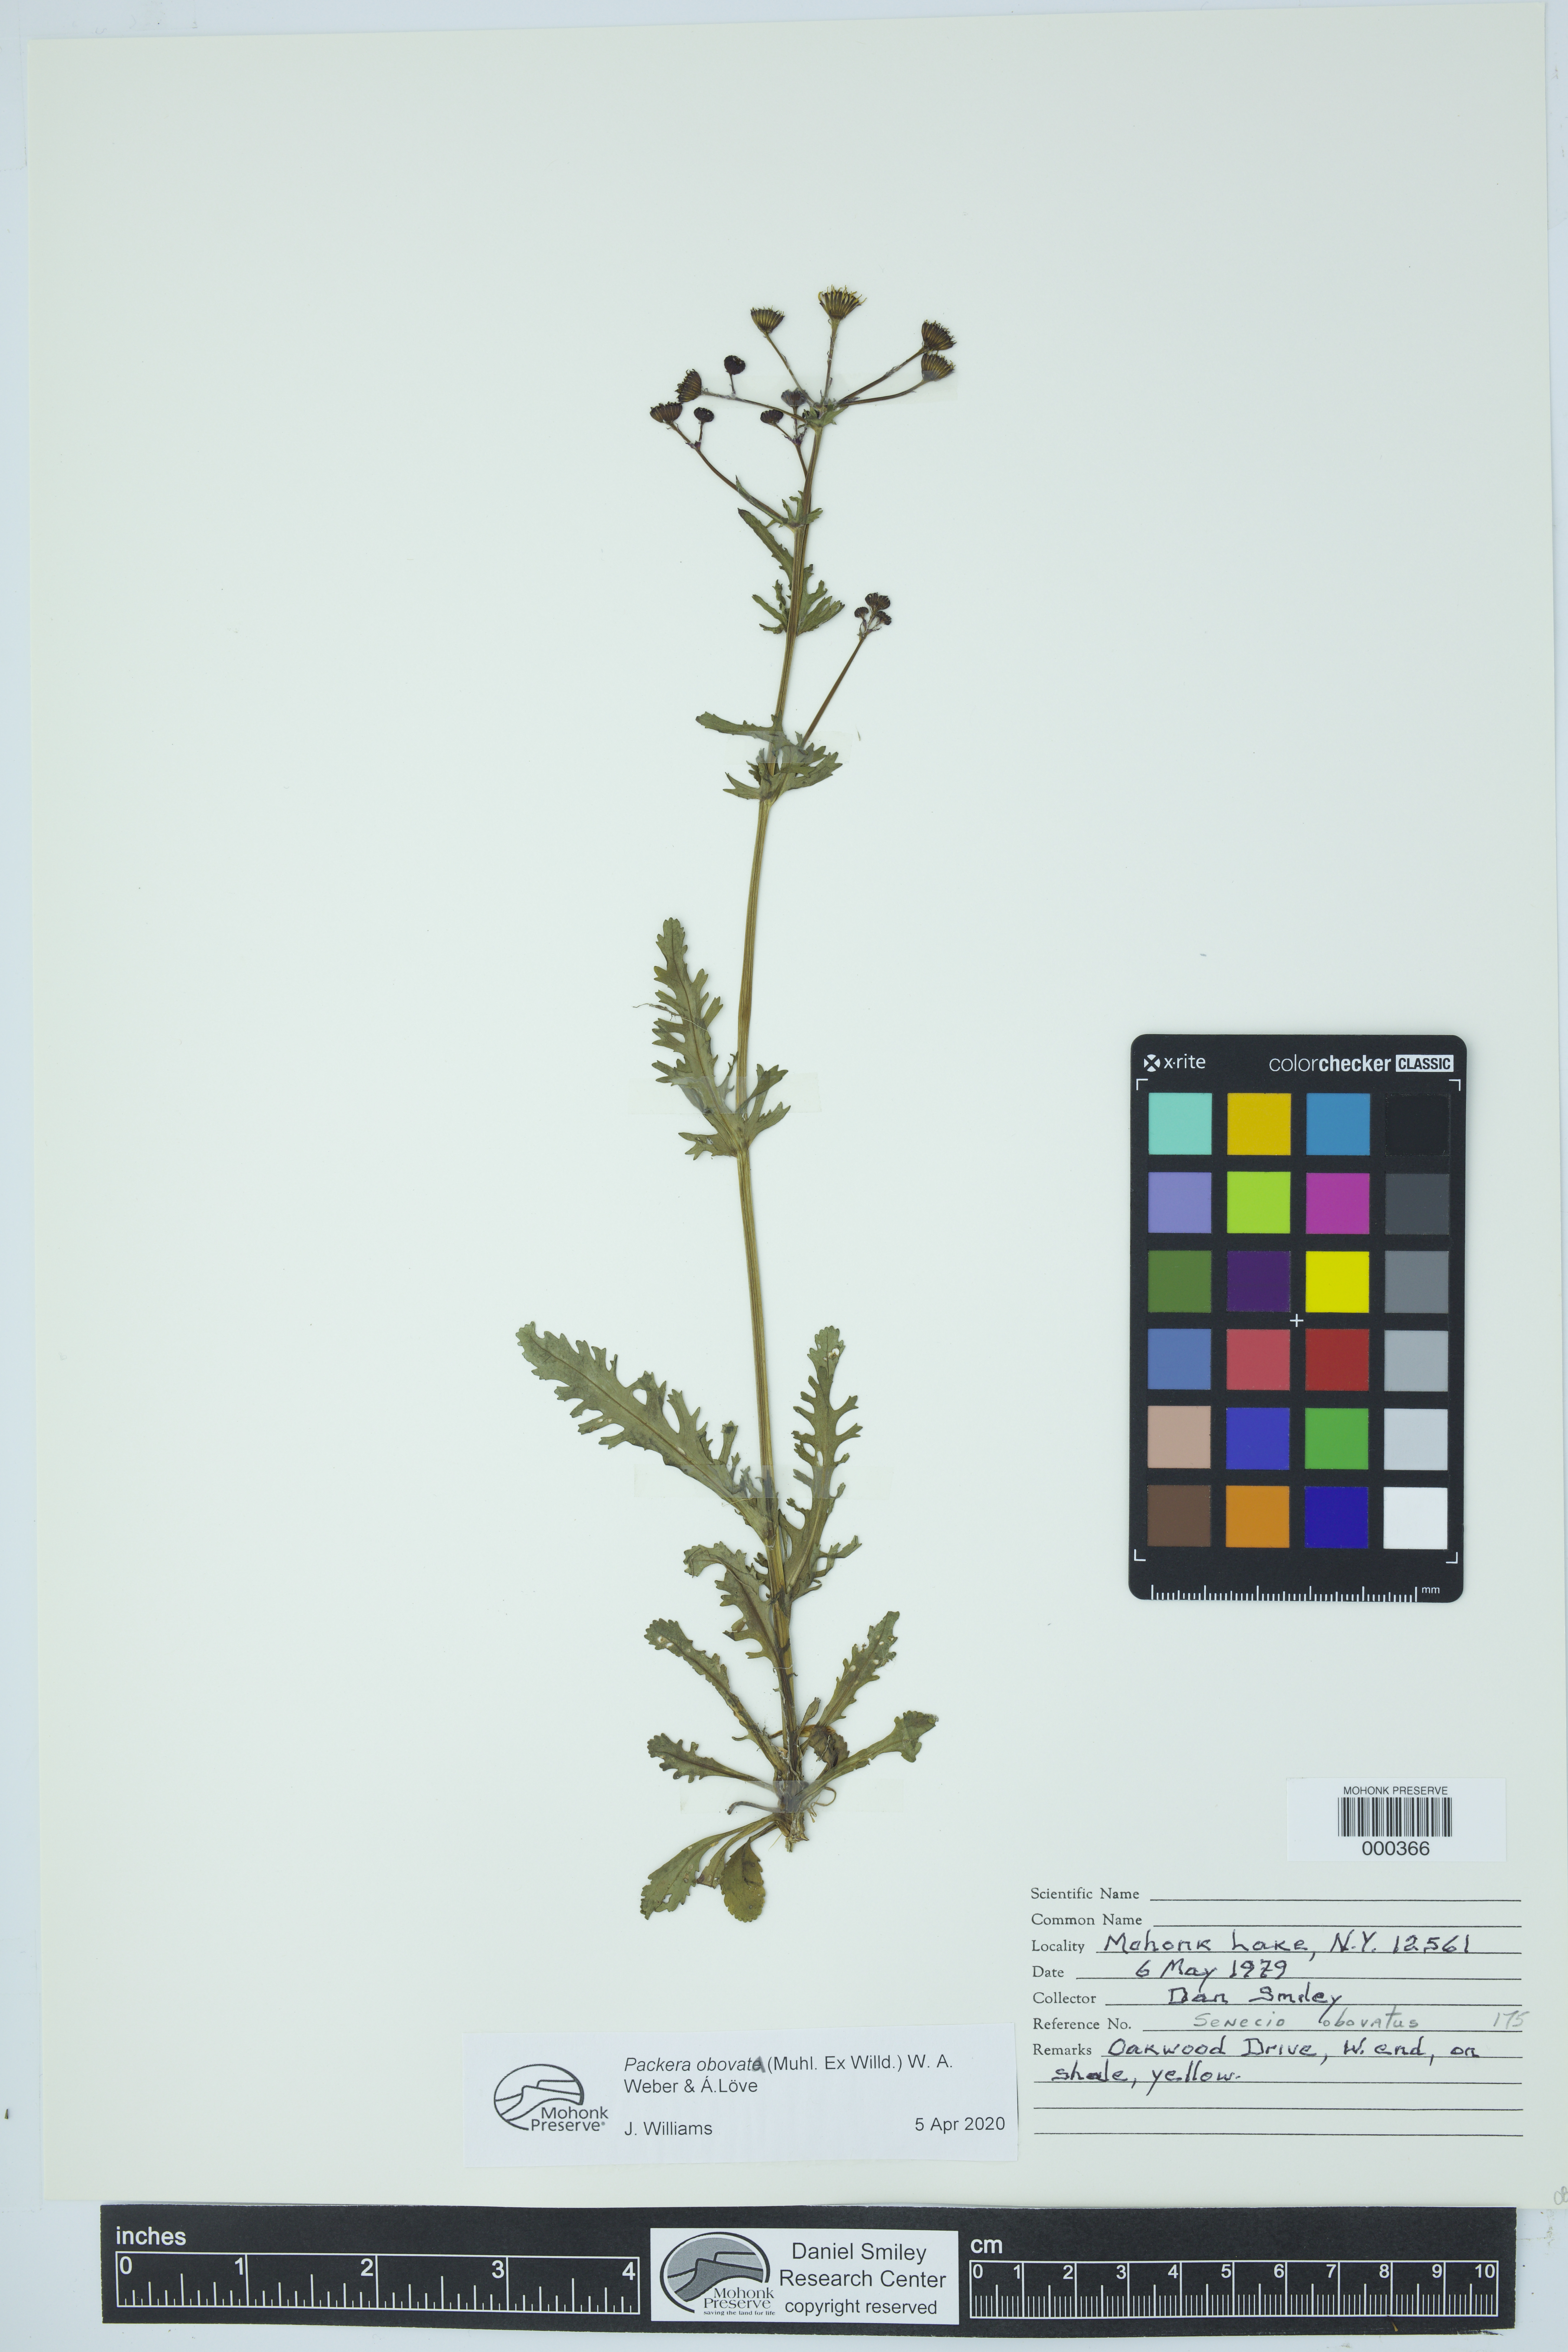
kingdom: Plantae
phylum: Tracheophyta
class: Magnoliopsida
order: Asterales
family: Asteraceae
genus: Packera
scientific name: Packera obovata
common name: Round-leaf ragwort
